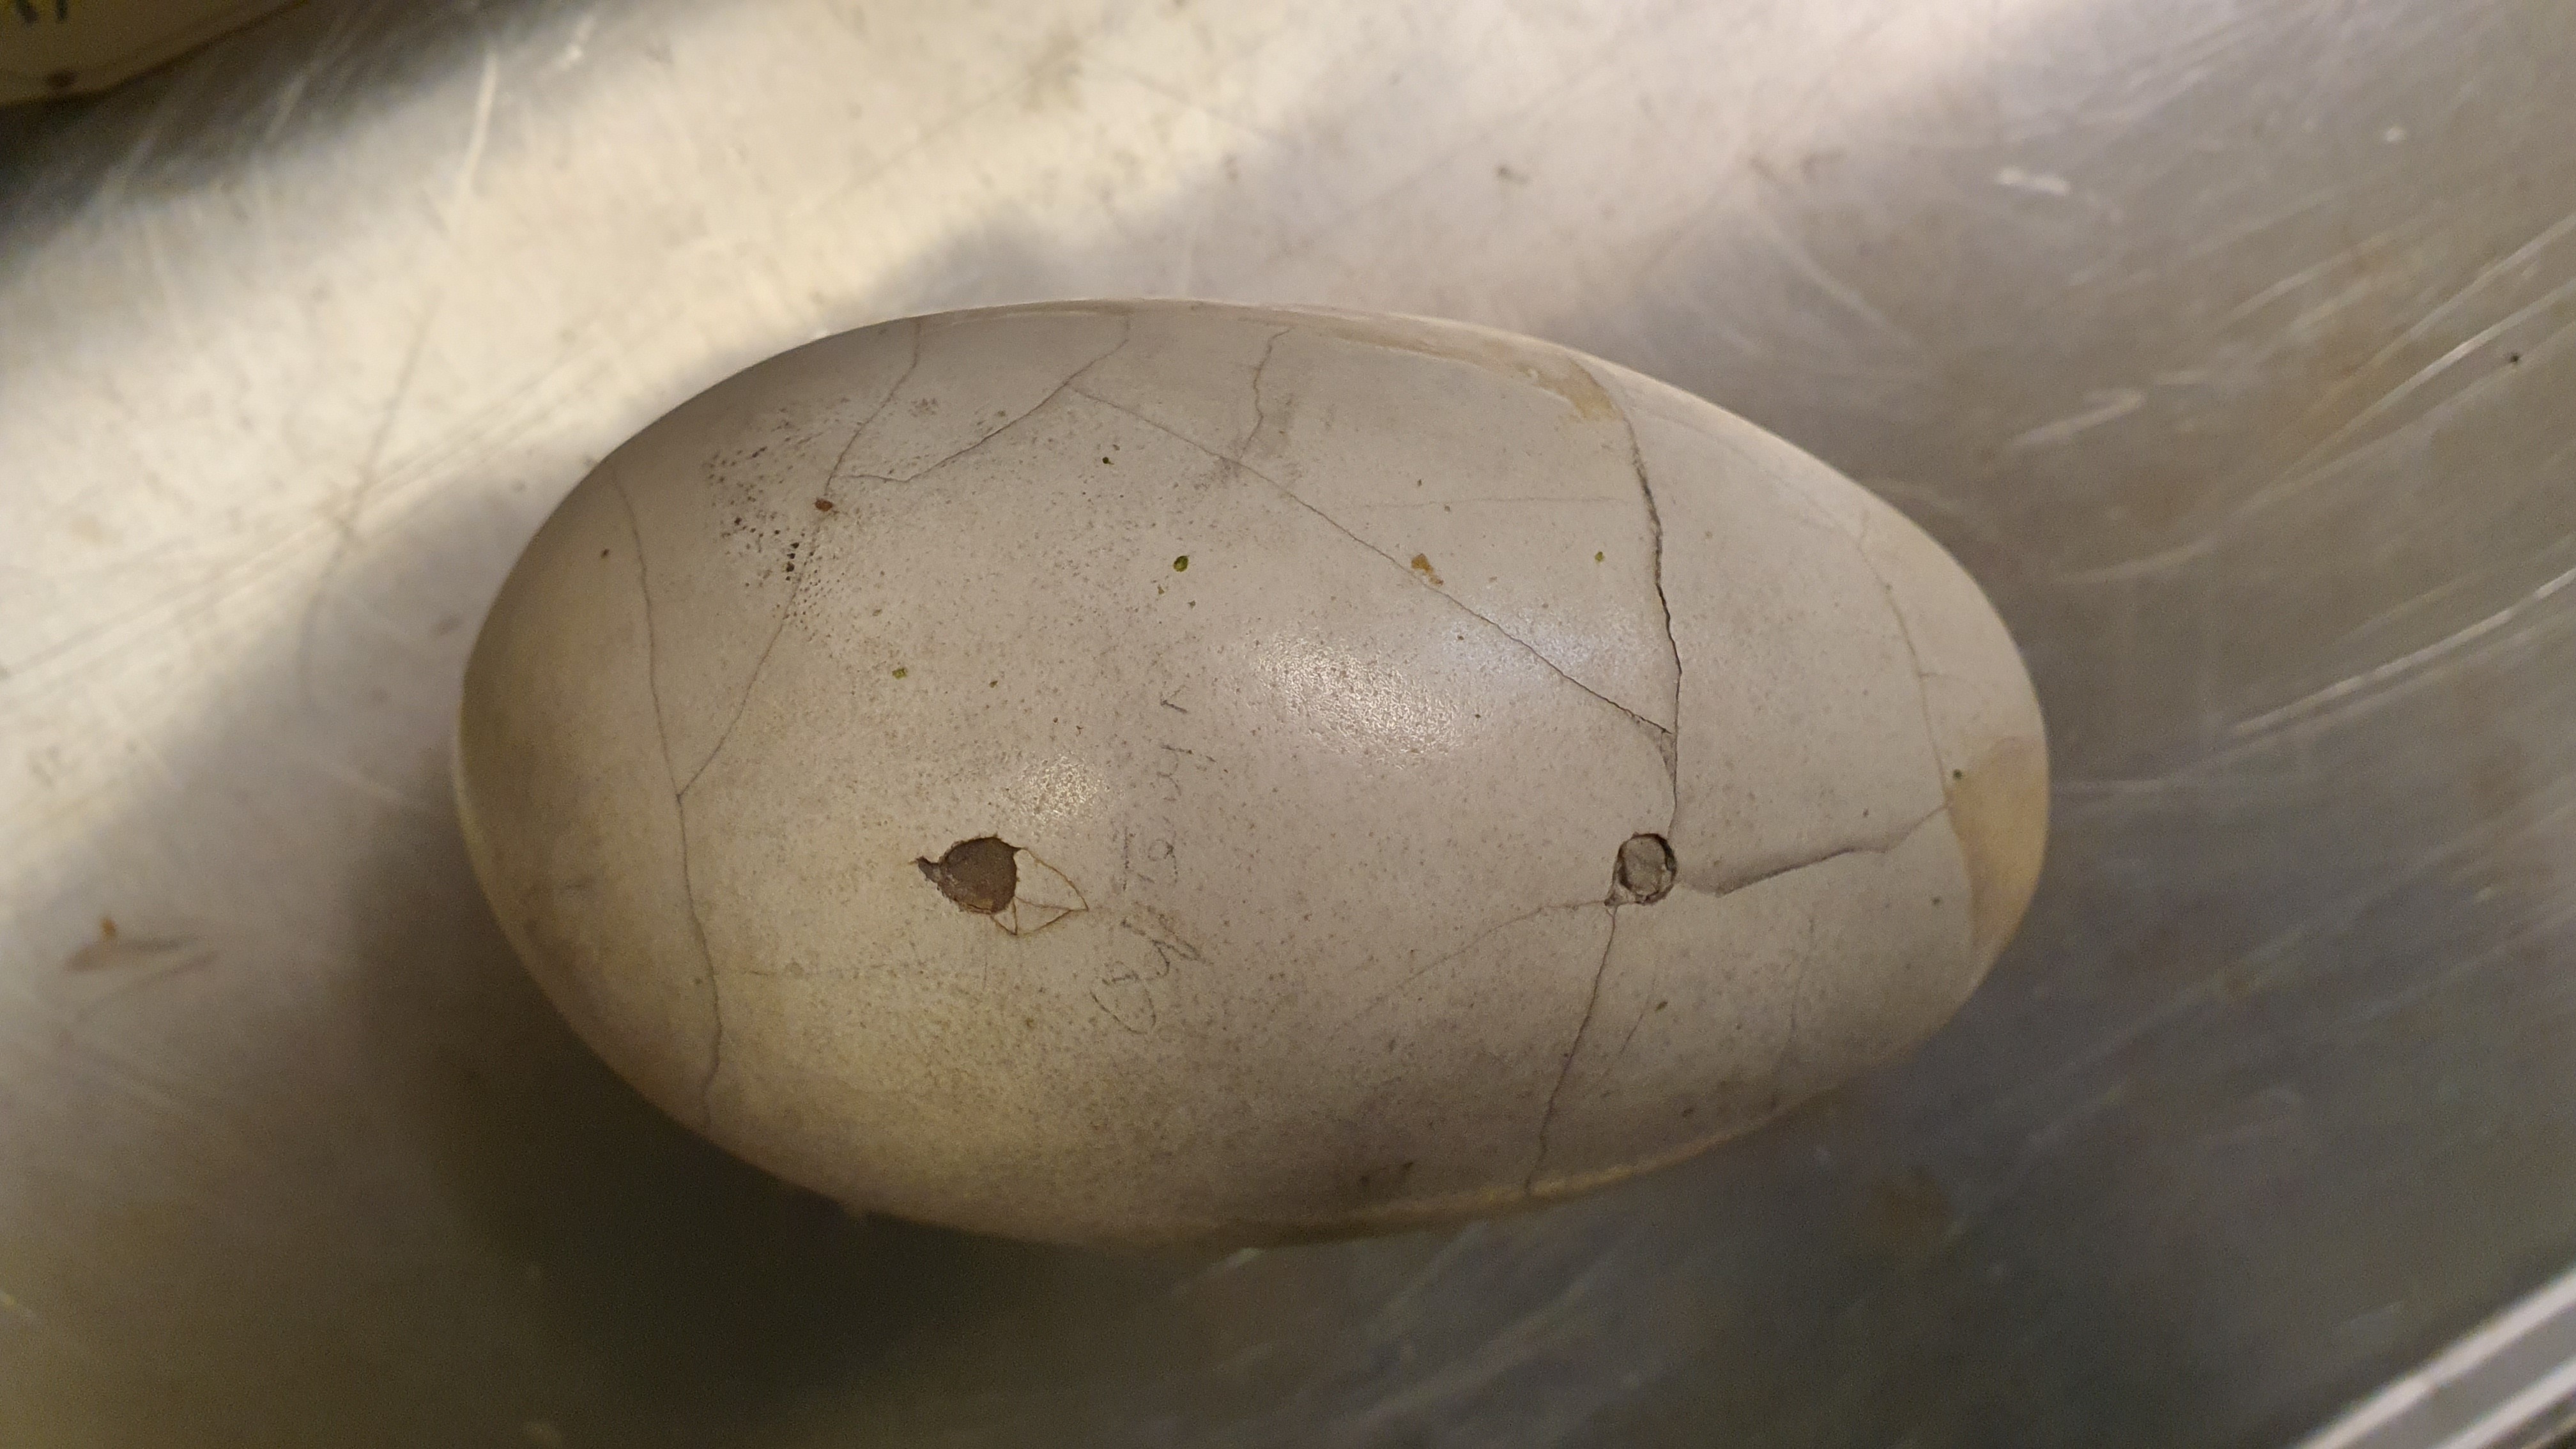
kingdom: Animalia
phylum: Chordata
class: Aves
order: Apterygiformes
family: Apterygidae
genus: Apteryx
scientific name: Apteryx
